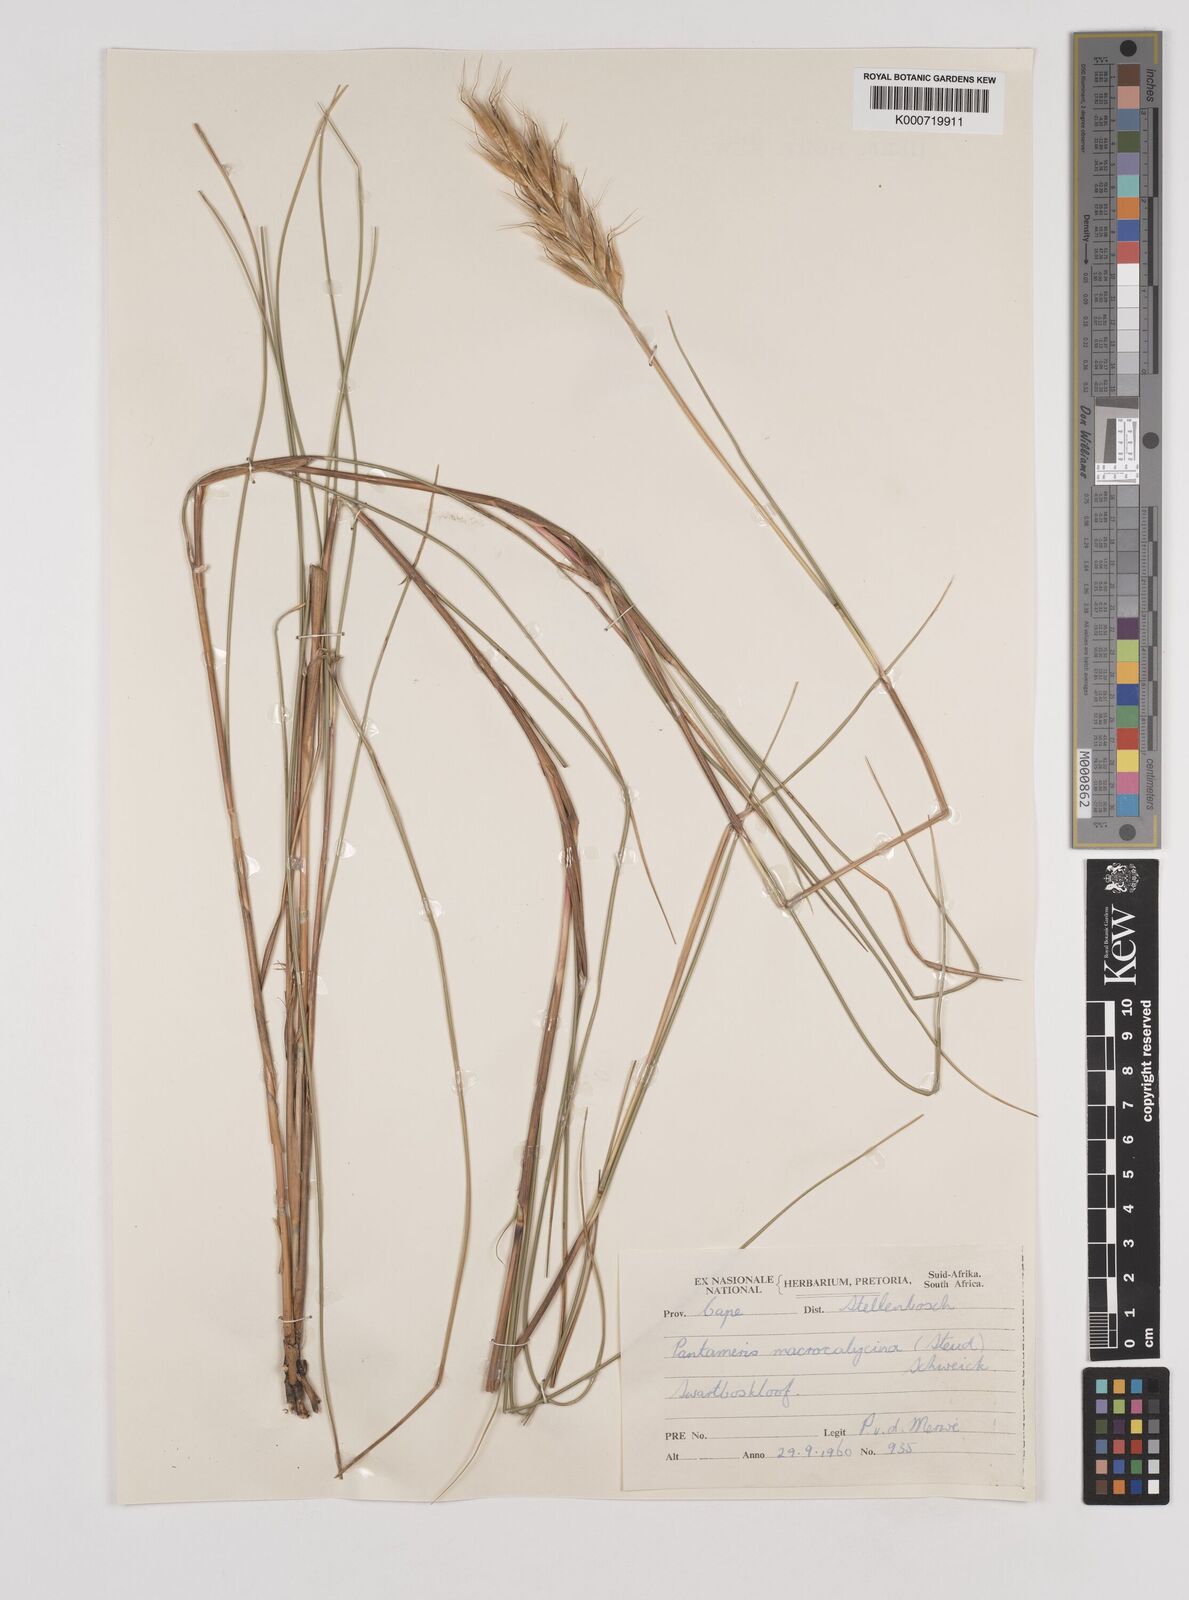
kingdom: Plantae
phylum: Tracheophyta
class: Liliopsida
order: Poales
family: Poaceae
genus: Pentameris
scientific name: Pentameris macrocalycina
